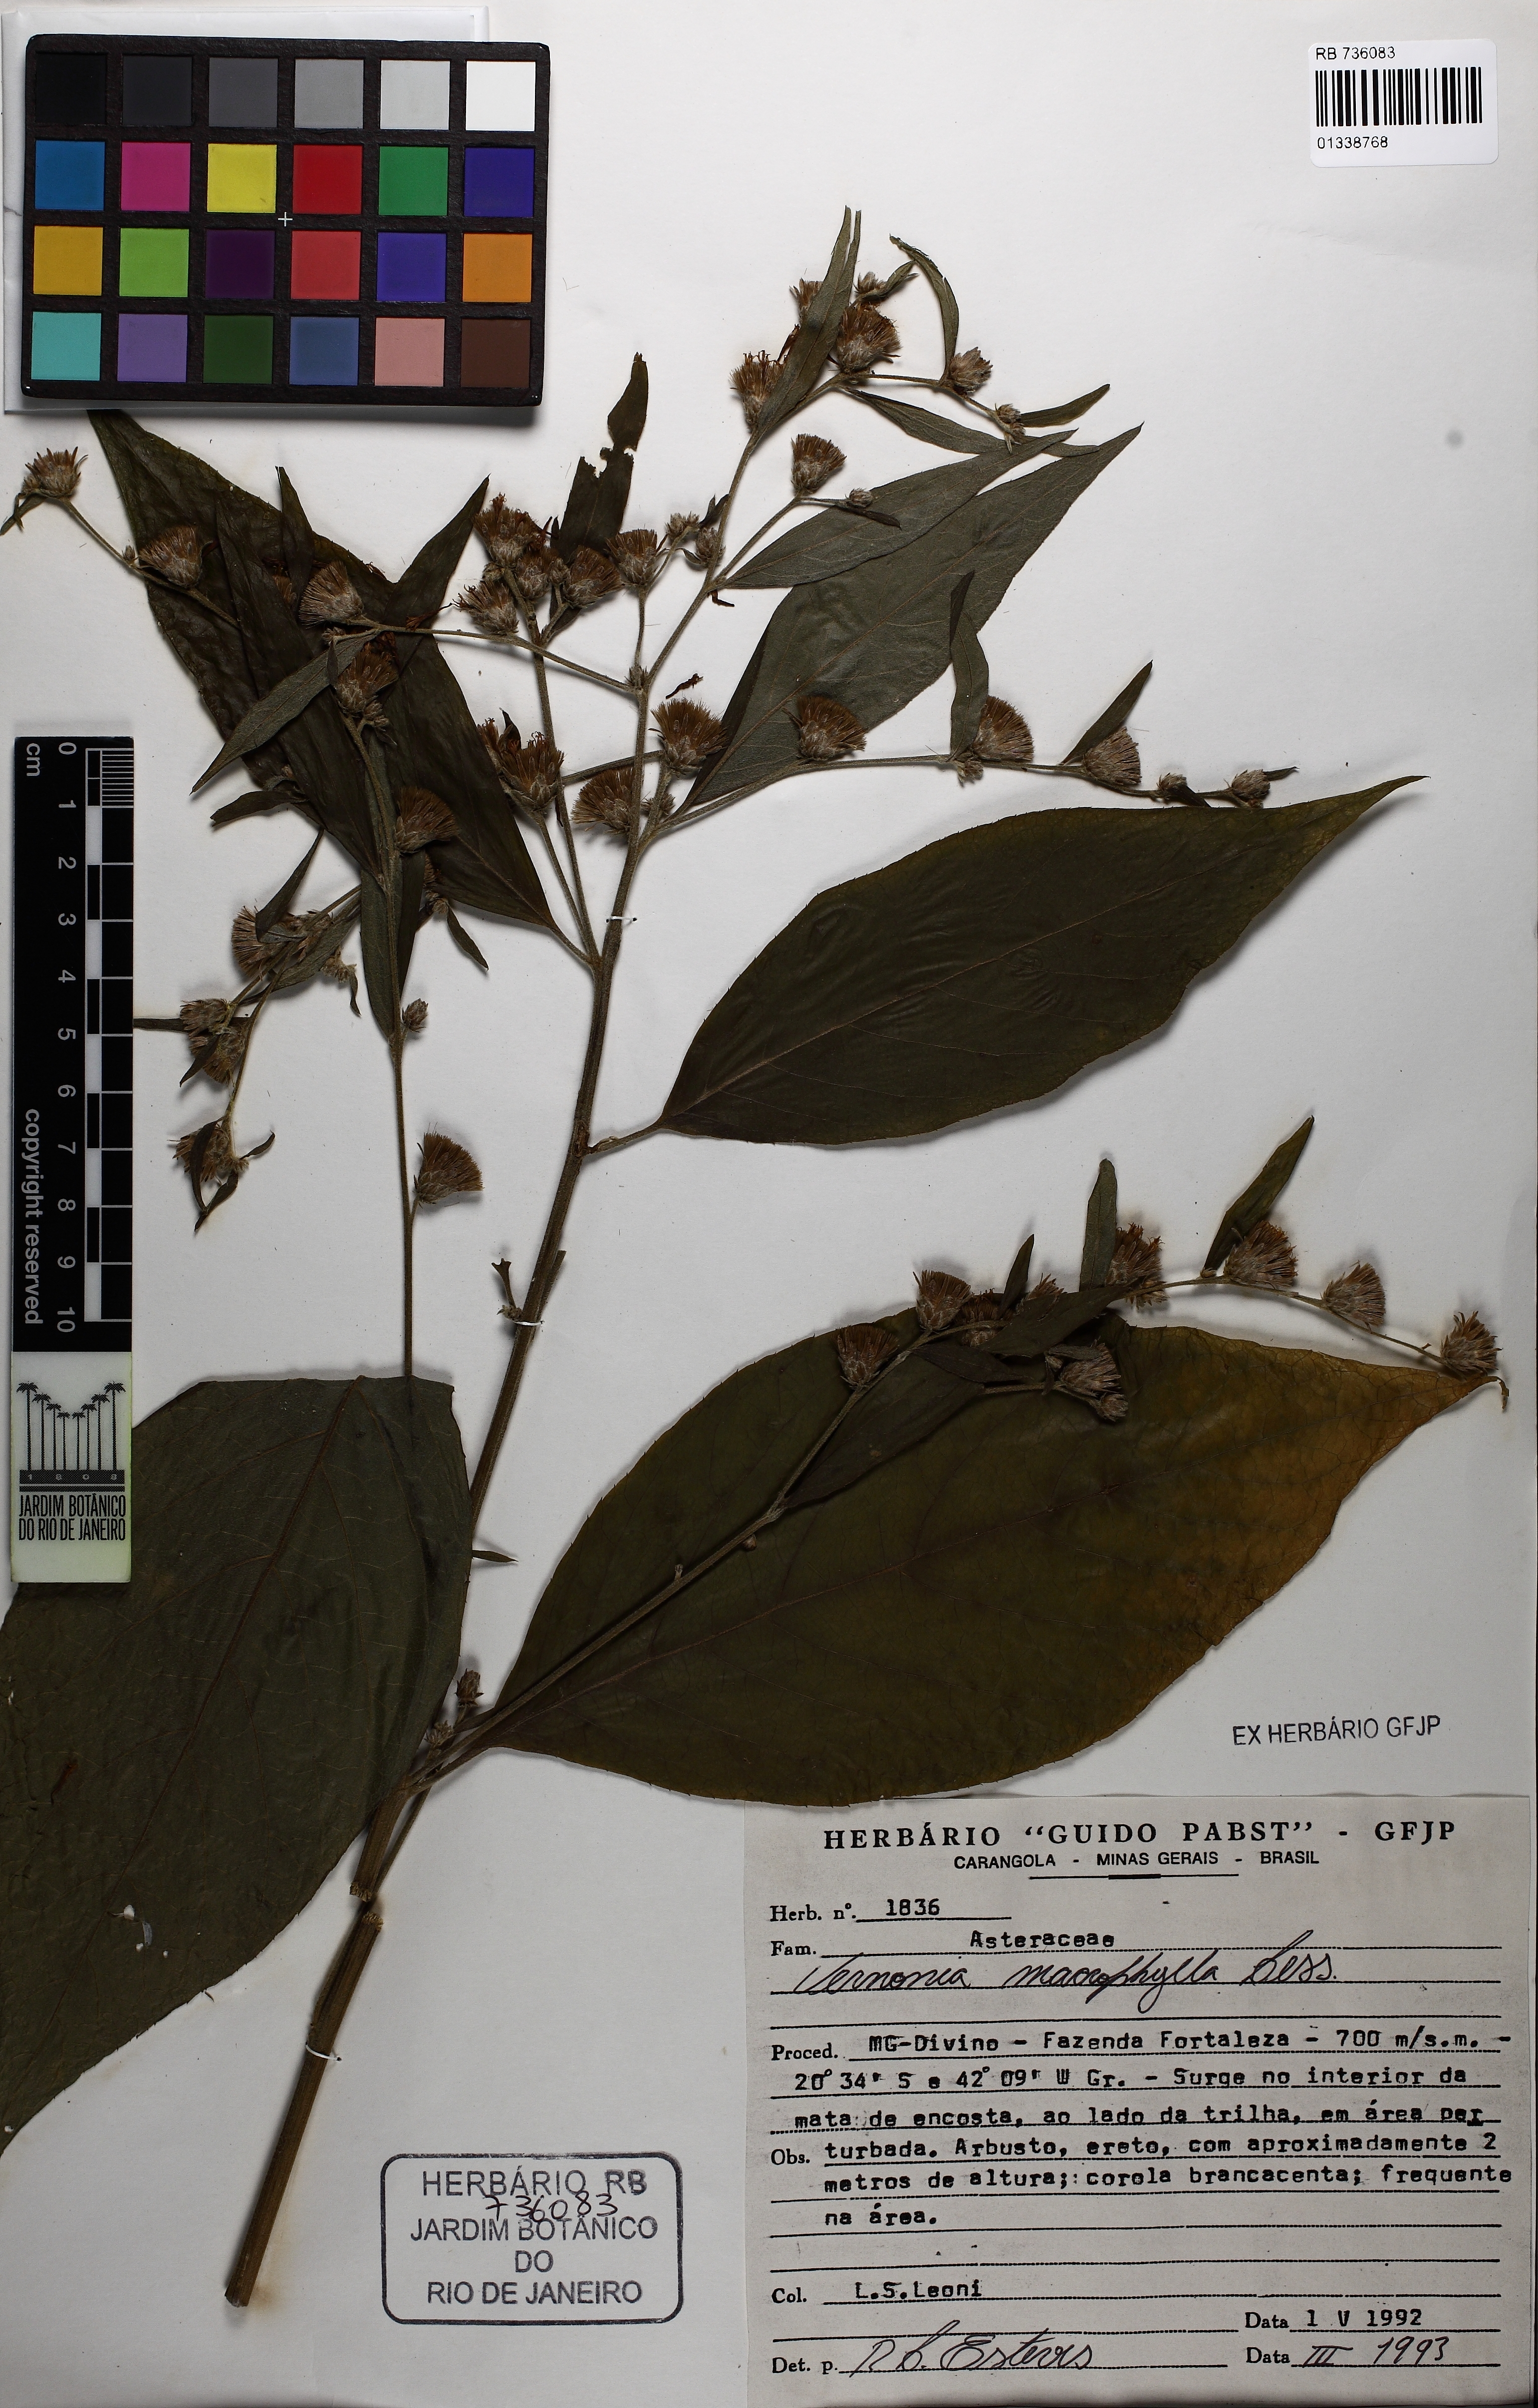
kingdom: Plantae
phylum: Tracheophyta
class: Magnoliopsida
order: Asterales
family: Asteraceae
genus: Lessingianthus
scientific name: Lessingianthus macrophyllus
